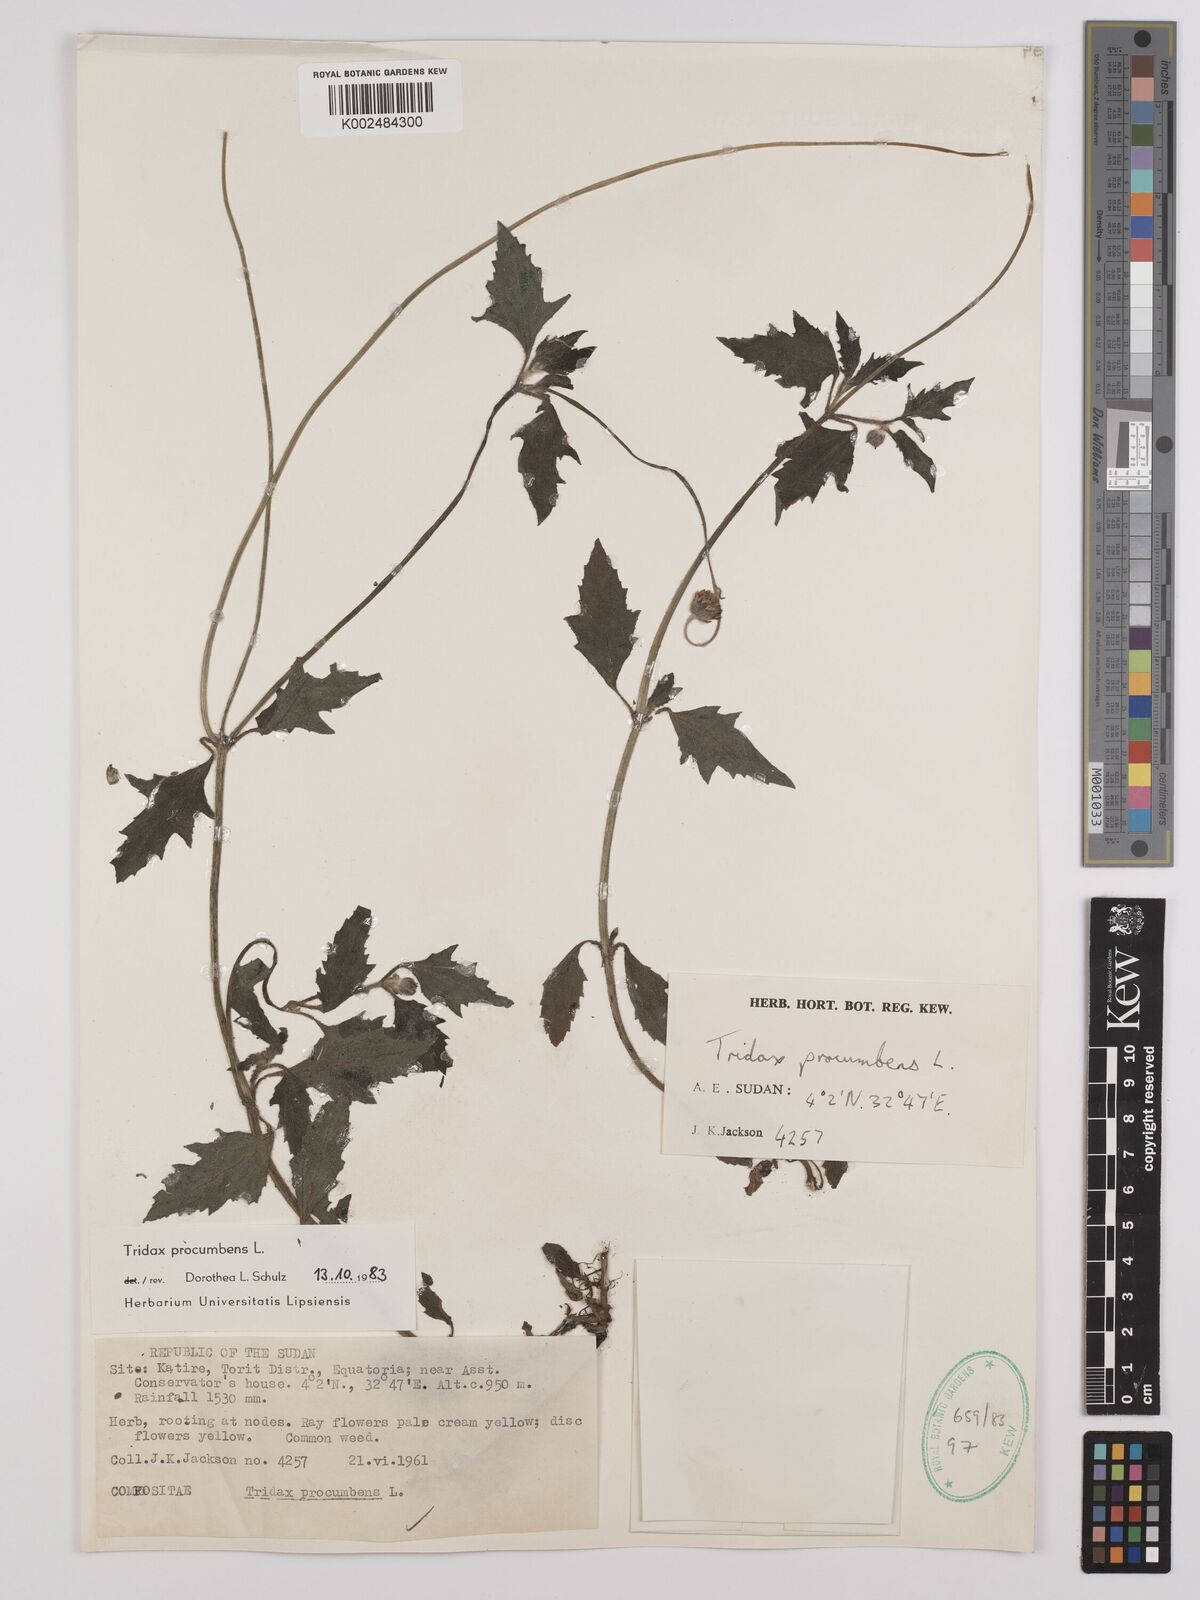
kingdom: Plantae
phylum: Tracheophyta
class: Magnoliopsida
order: Asterales
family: Asteraceae
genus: Tridax
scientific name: Tridax procumbens
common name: Coatbuttons
